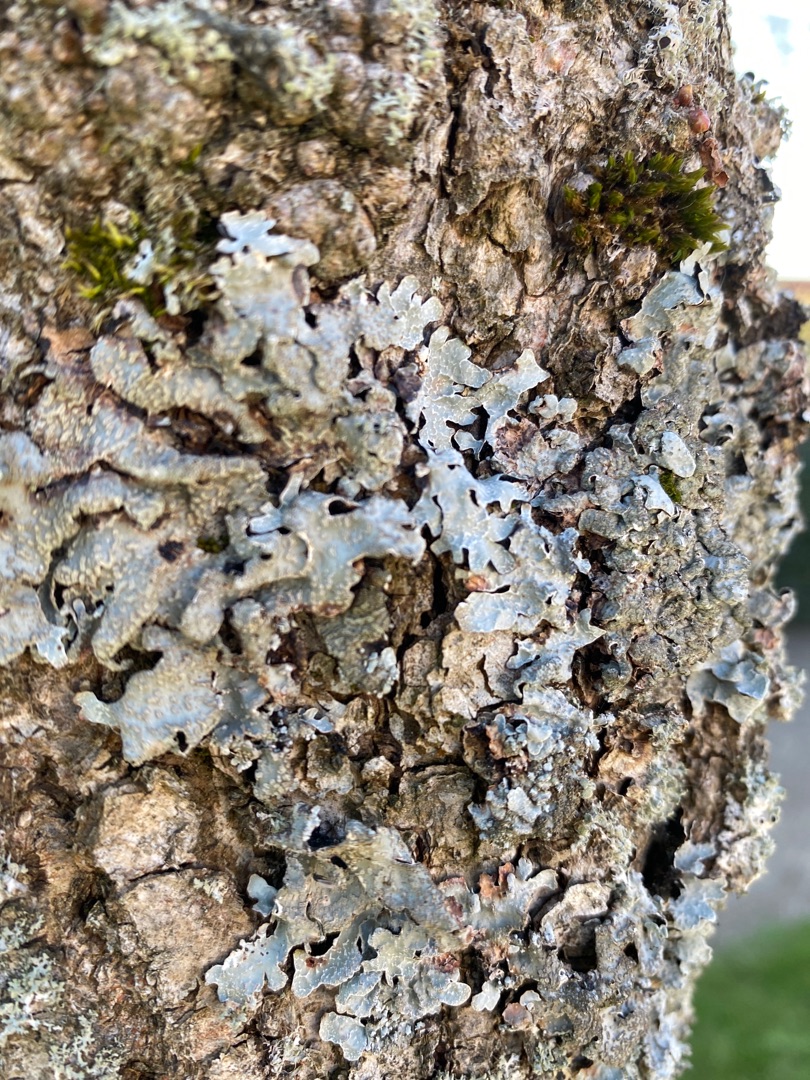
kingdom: Fungi
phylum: Ascomycota
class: Lecanoromycetes
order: Lecanorales
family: Parmeliaceae
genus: Parmelia
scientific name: Parmelia sulcata
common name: Rynket skållav
